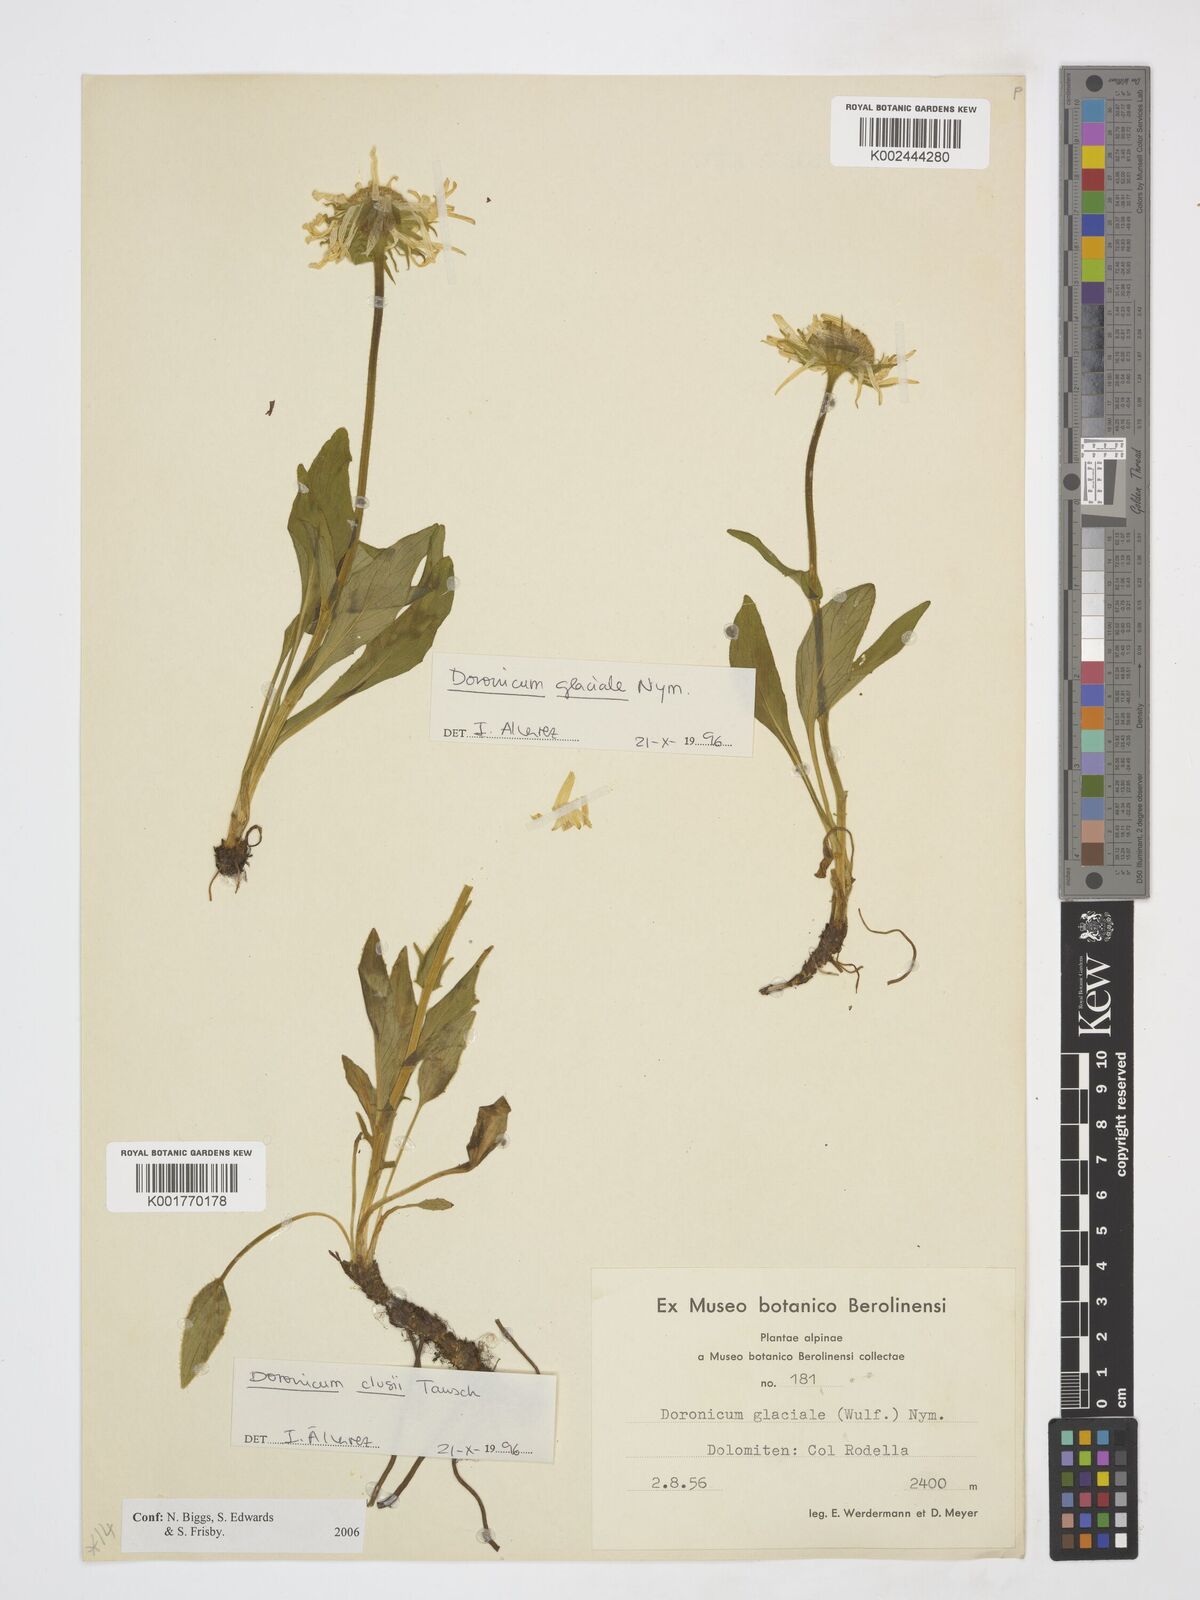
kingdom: Plantae
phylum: Tracheophyta
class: Magnoliopsida
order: Asterales
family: Asteraceae
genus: Doronicum
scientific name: Doronicum glaciale
